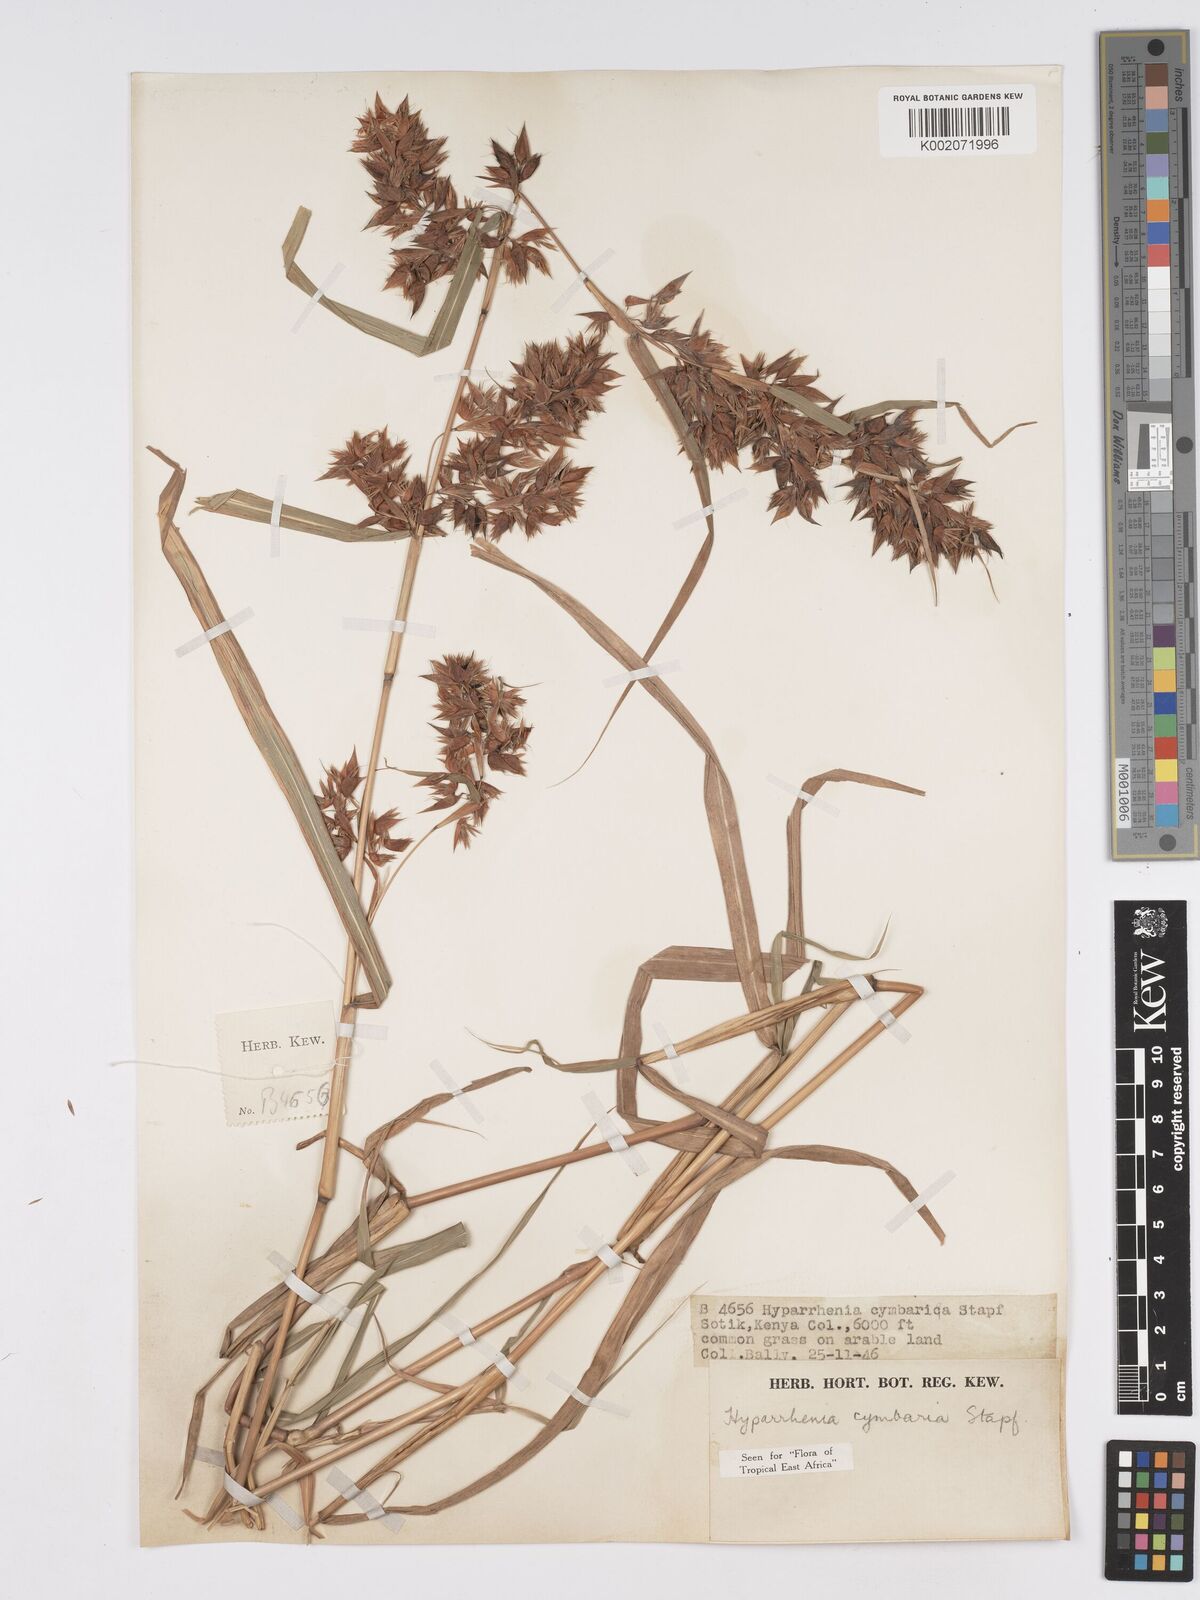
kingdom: Plantae
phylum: Tracheophyta
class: Liliopsida
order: Poales
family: Poaceae
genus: Hyparrhenia
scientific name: Hyparrhenia cymbaria
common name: Boat thatching grass
